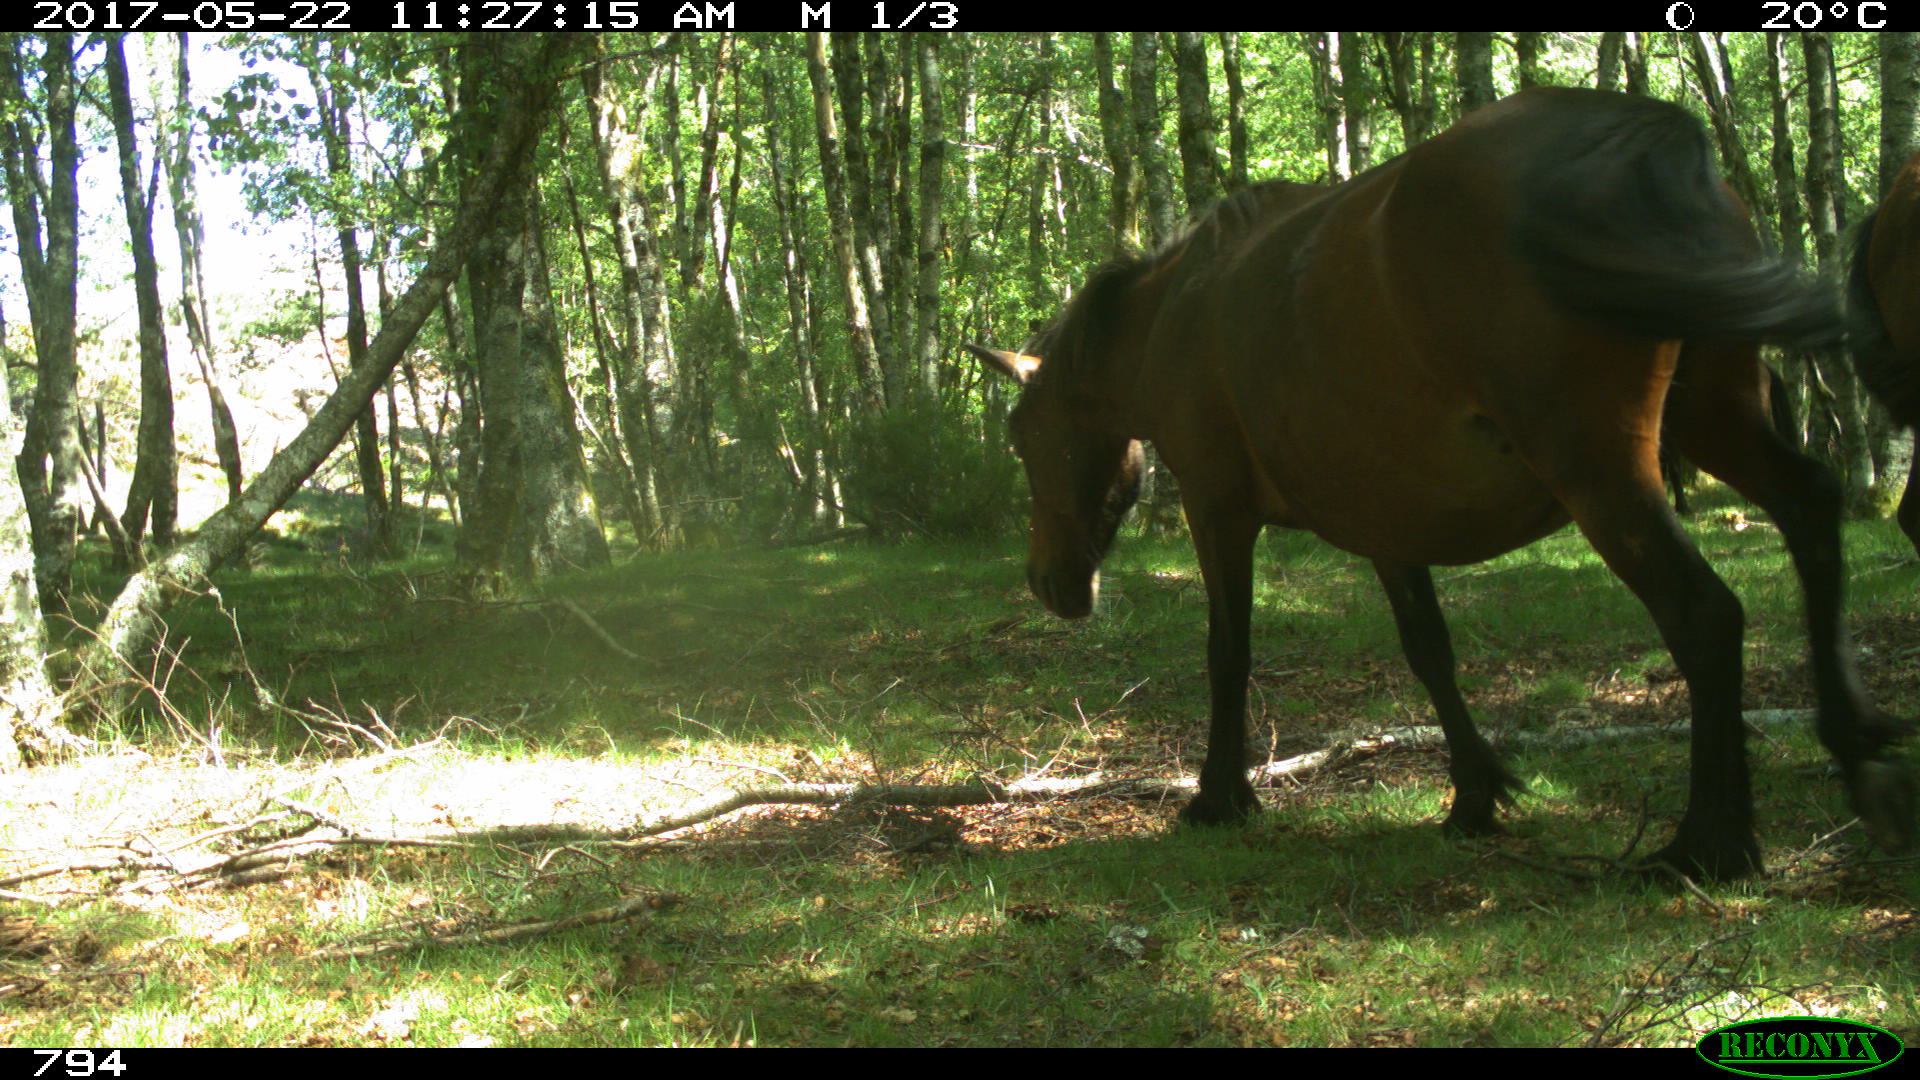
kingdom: Animalia
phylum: Chordata
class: Mammalia
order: Perissodactyla
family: Equidae
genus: Equus
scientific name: Equus caballus
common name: Horse
